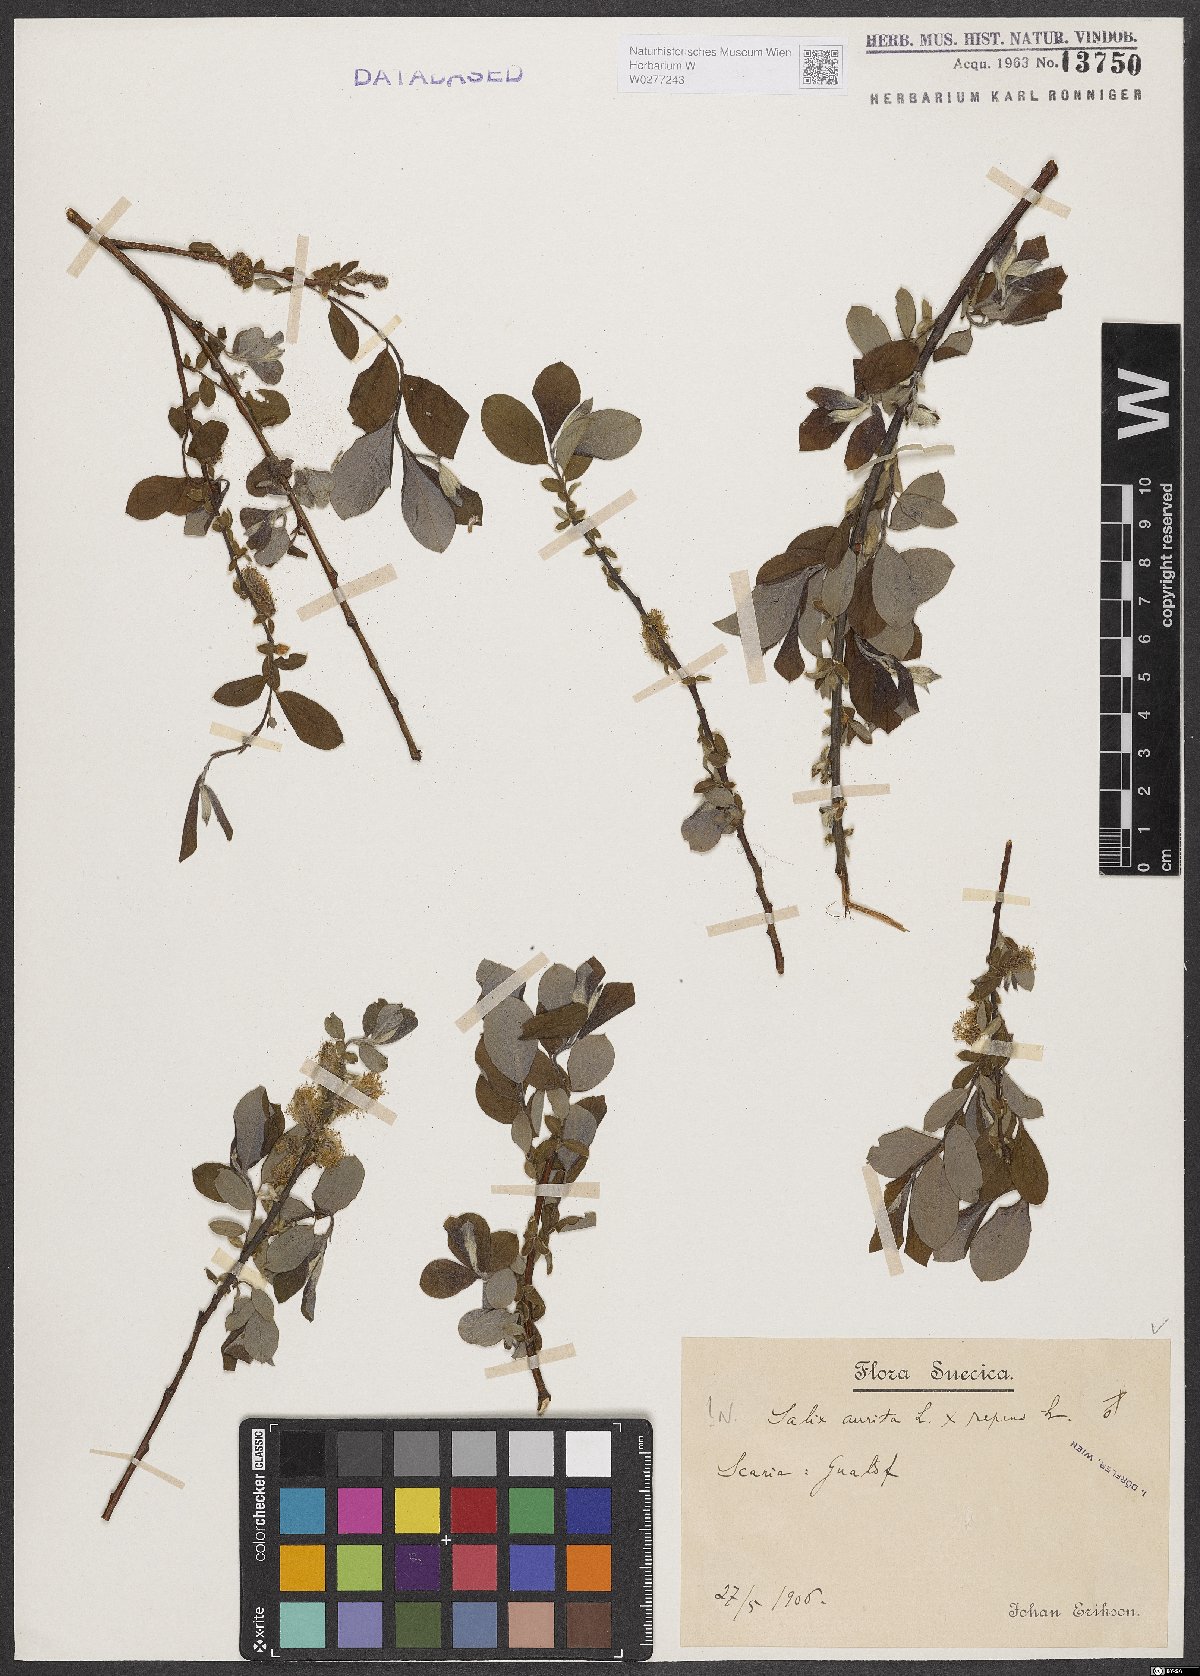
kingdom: Plantae
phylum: Tracheophyta
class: Magnoliopsida
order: Malpighiales
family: Salicaceae
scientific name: Salicaceae
